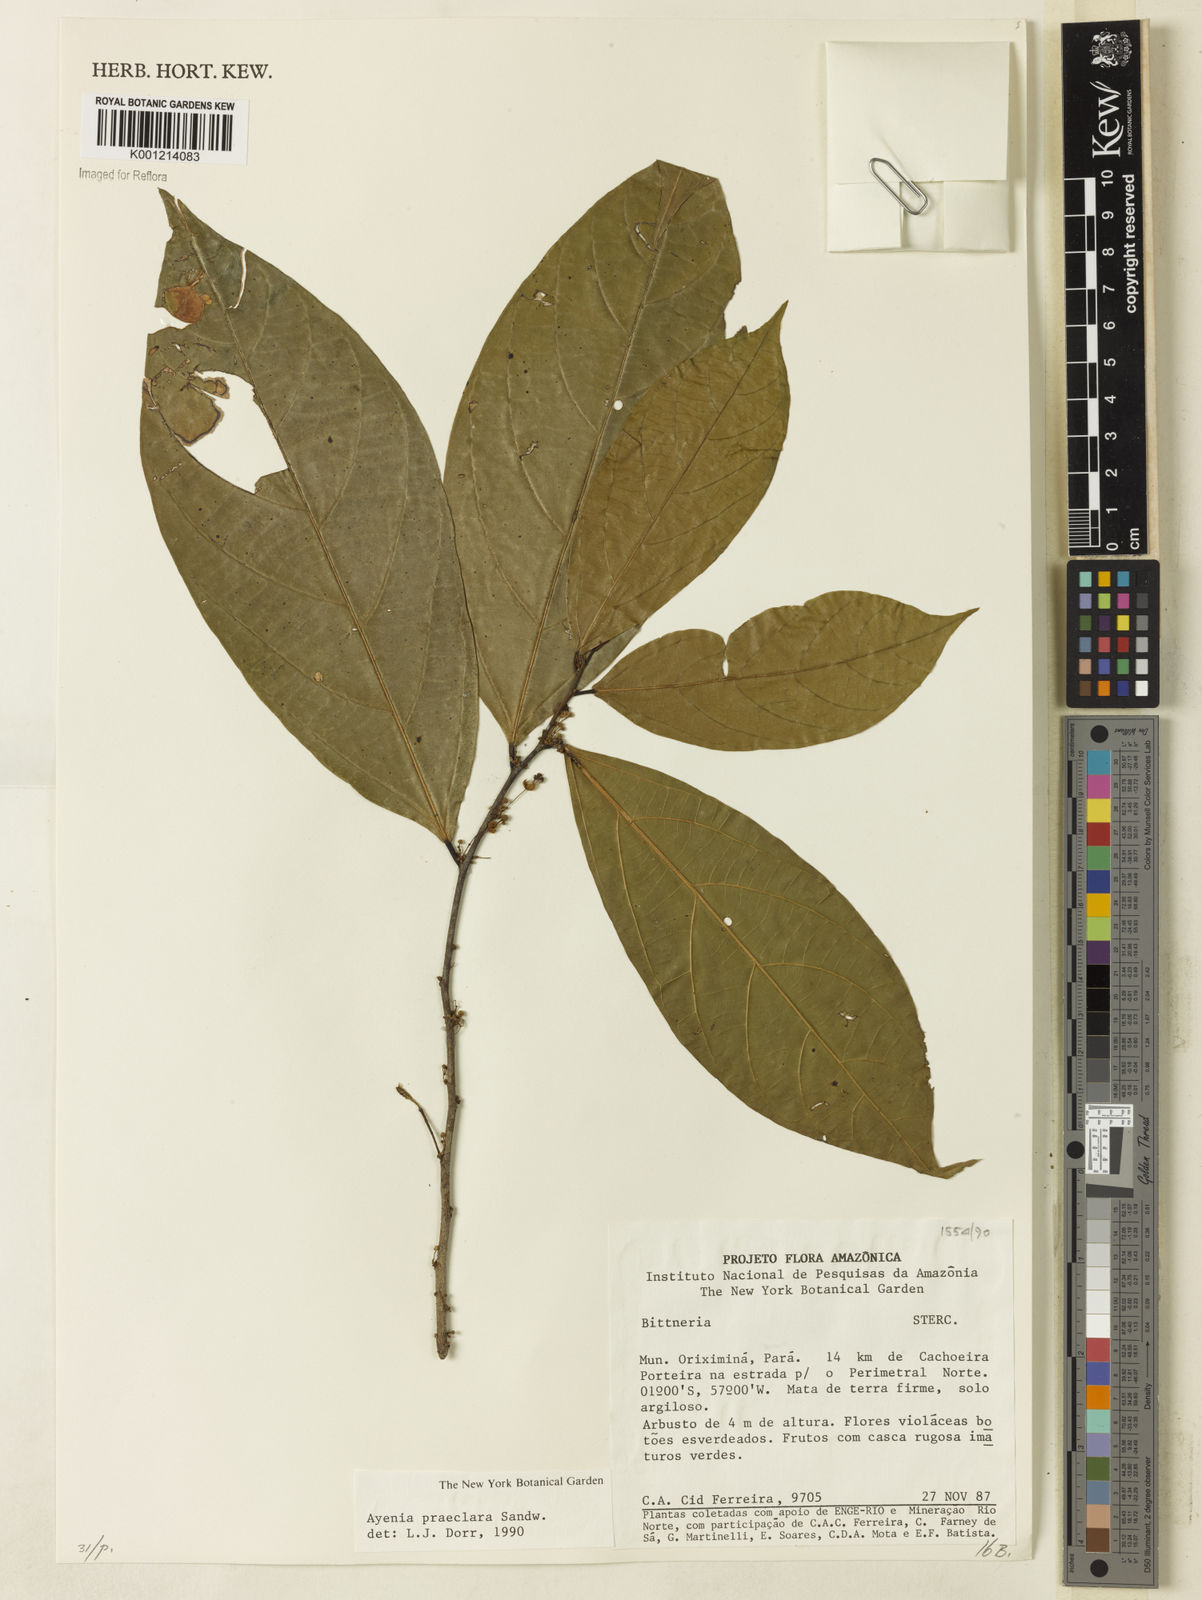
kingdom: Plantae
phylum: Tracheophyta
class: Magnoliopsida
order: Malvales
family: Malvaceae
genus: Ayenia
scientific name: Ayenia praeclara
